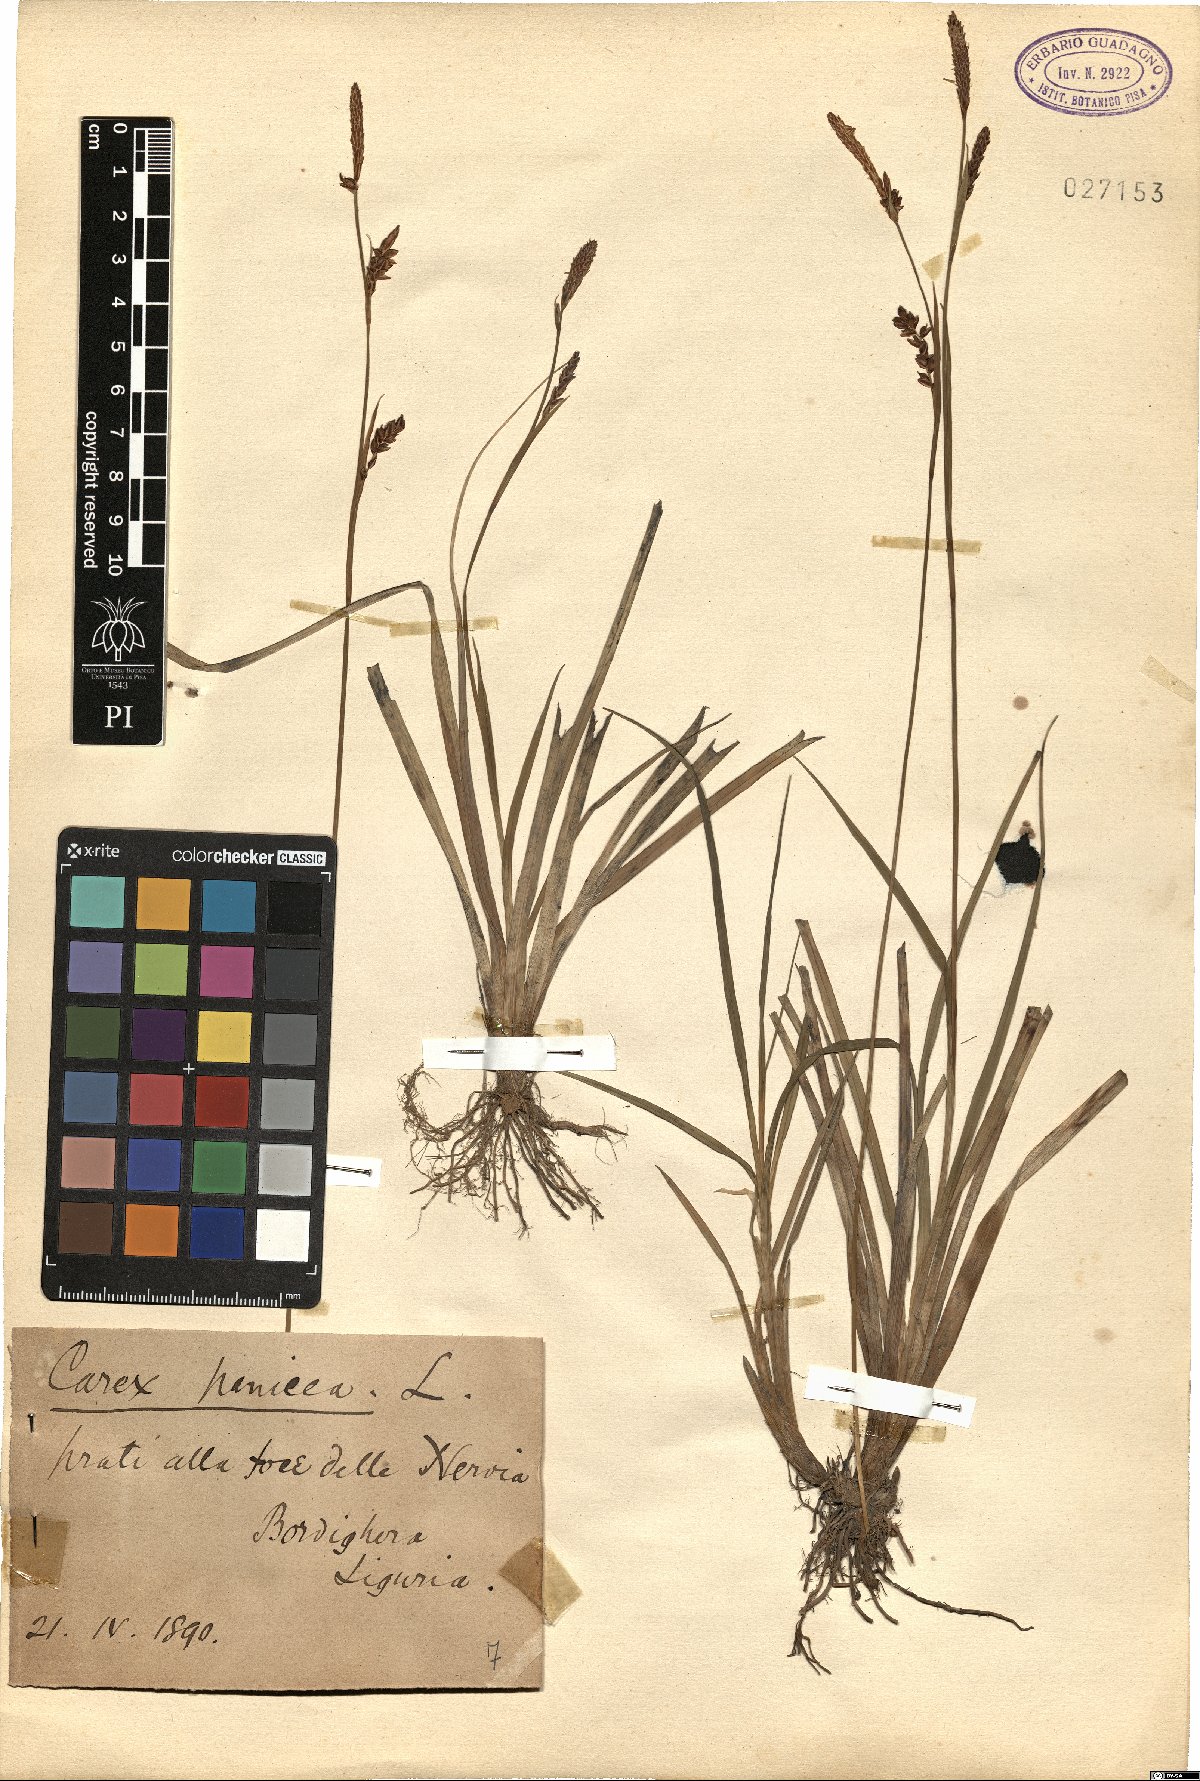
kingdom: Plantae
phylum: Tracheophyta
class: Liliopsida
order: Poales
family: Cyperaceae
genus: Carex
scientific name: Carex panicea
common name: Carnation sedge
